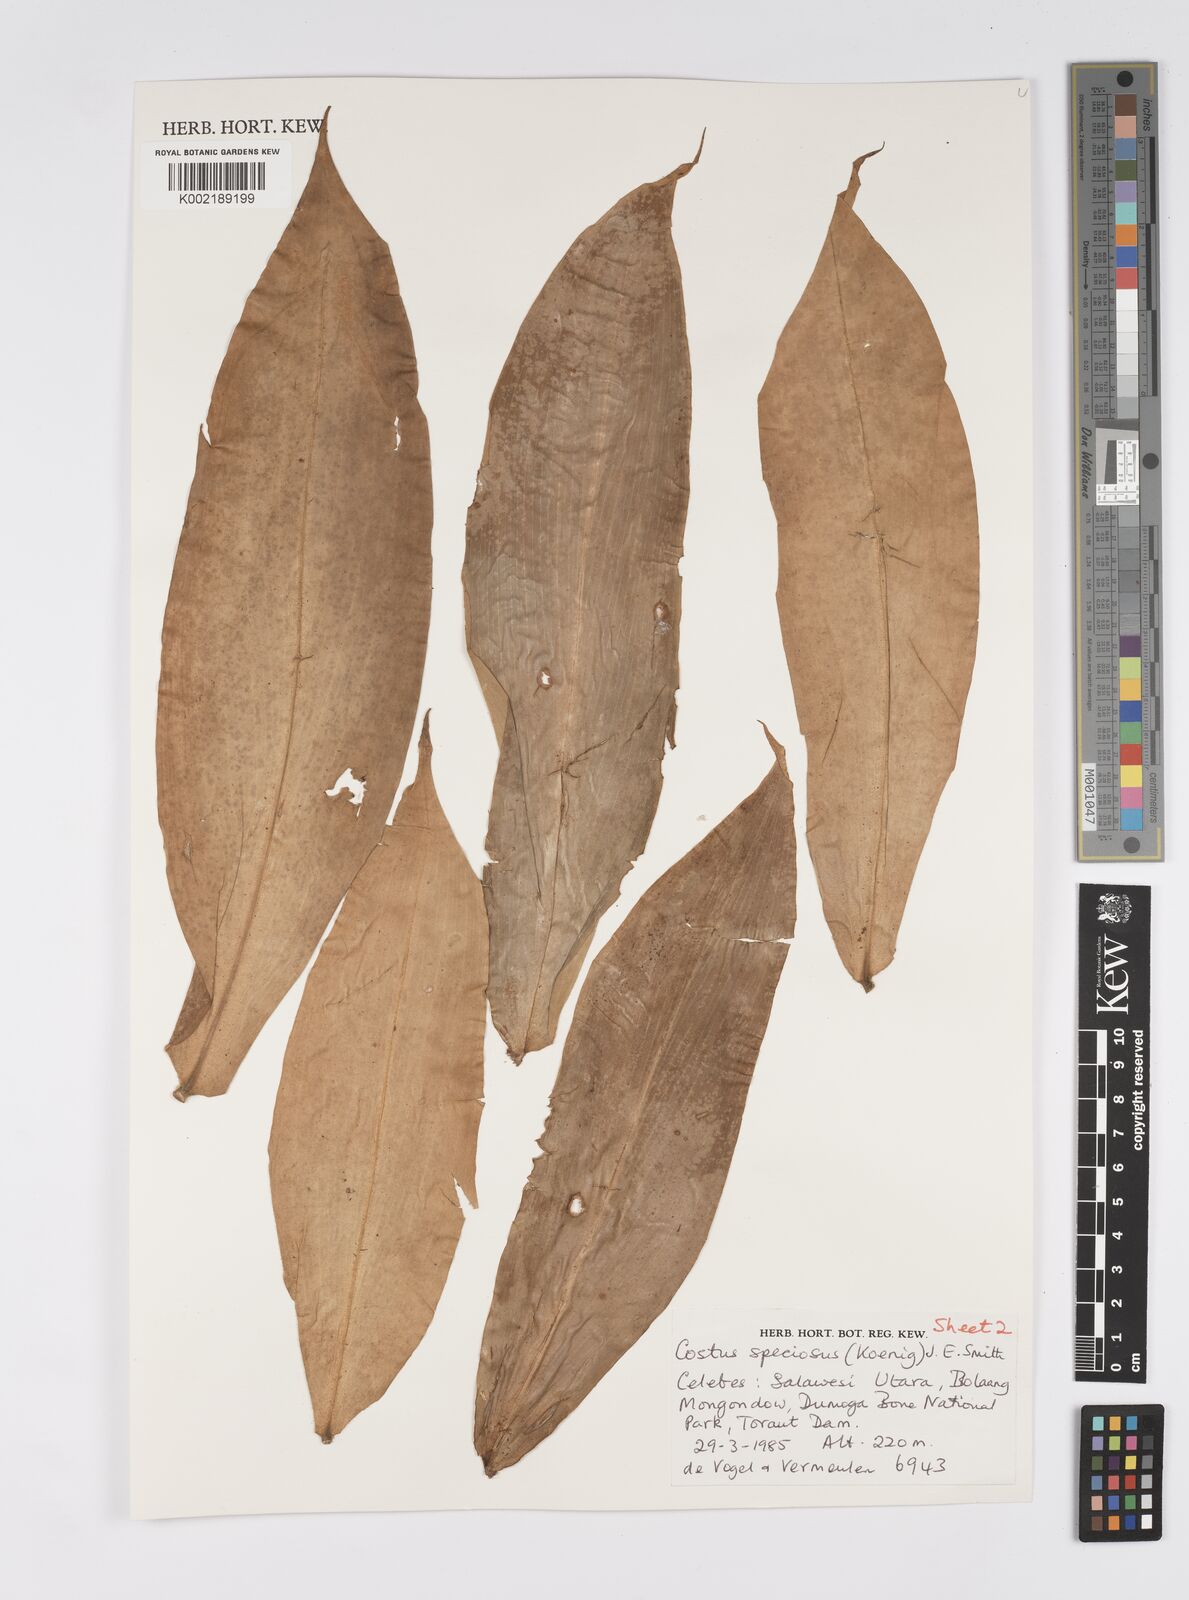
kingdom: Plantae
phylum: Tracheophyta
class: Liliopsida
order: Zingiberales
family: Costaceae
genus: Hellenia
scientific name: Hellenia speciosa
